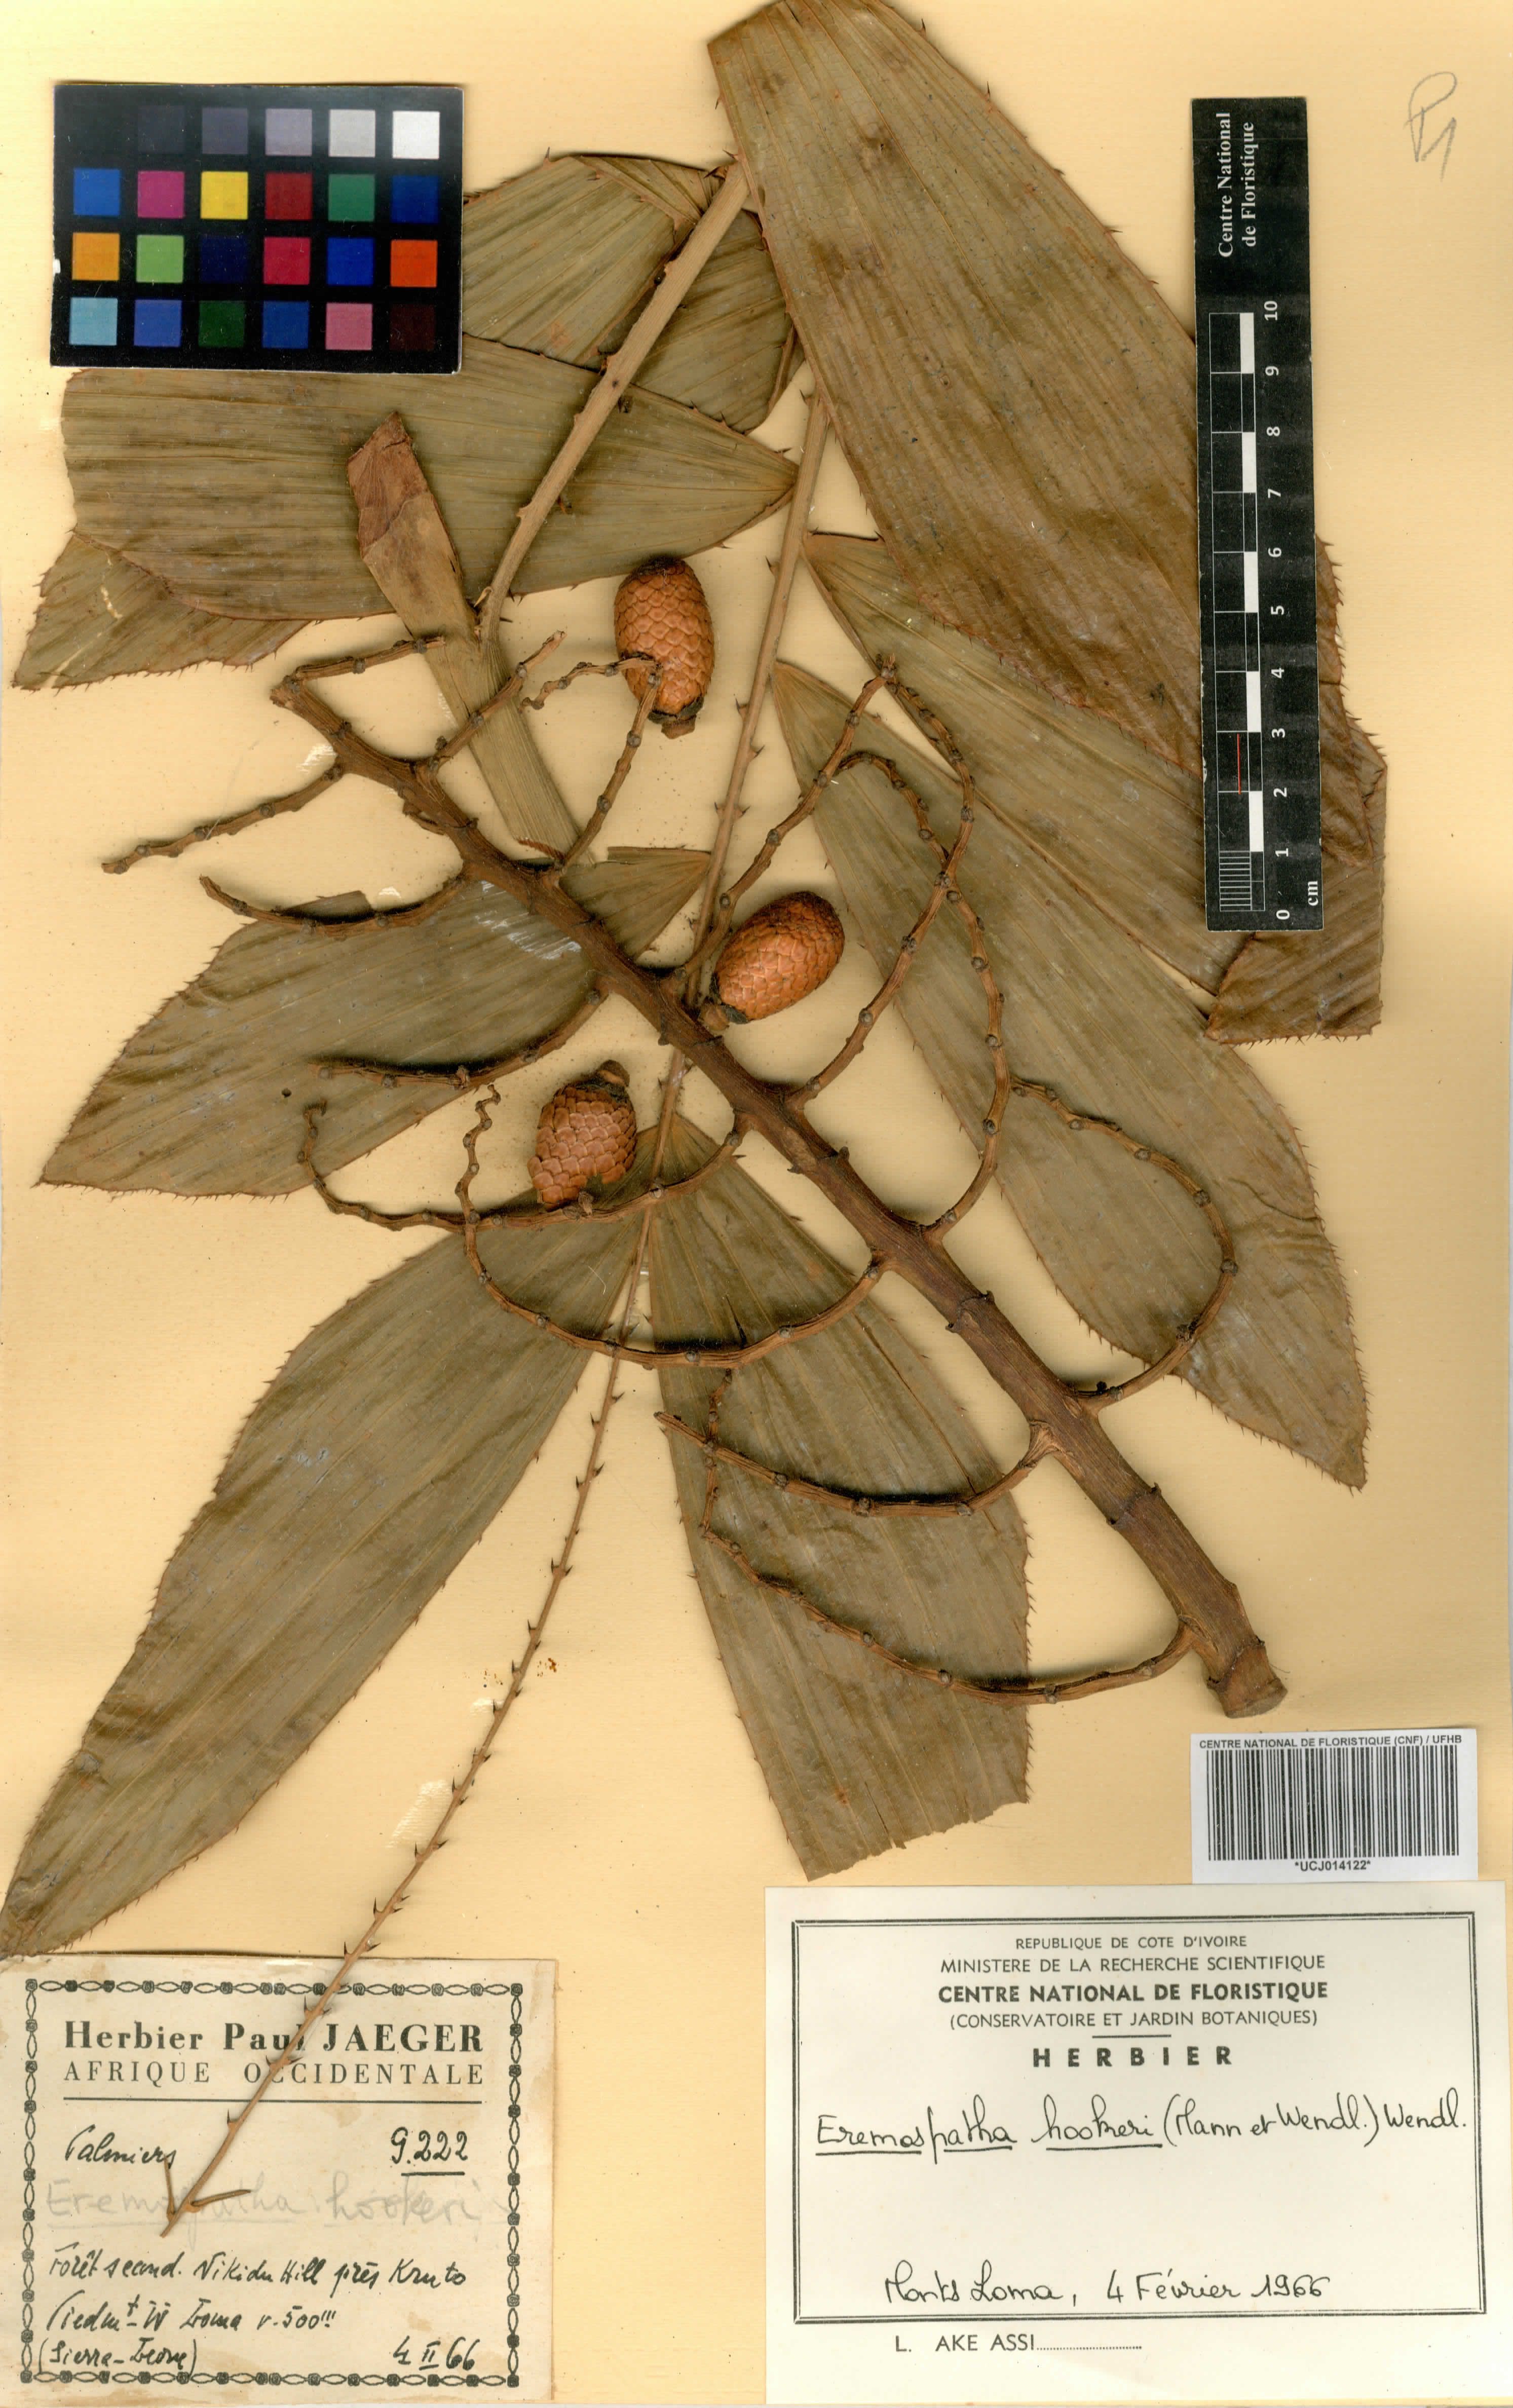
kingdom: Plantae
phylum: Tracheophyta
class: Liliopsida
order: Arecales
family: Arecaceae
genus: Eremospatha
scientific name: Eremospatha hookeri
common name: Rattan
